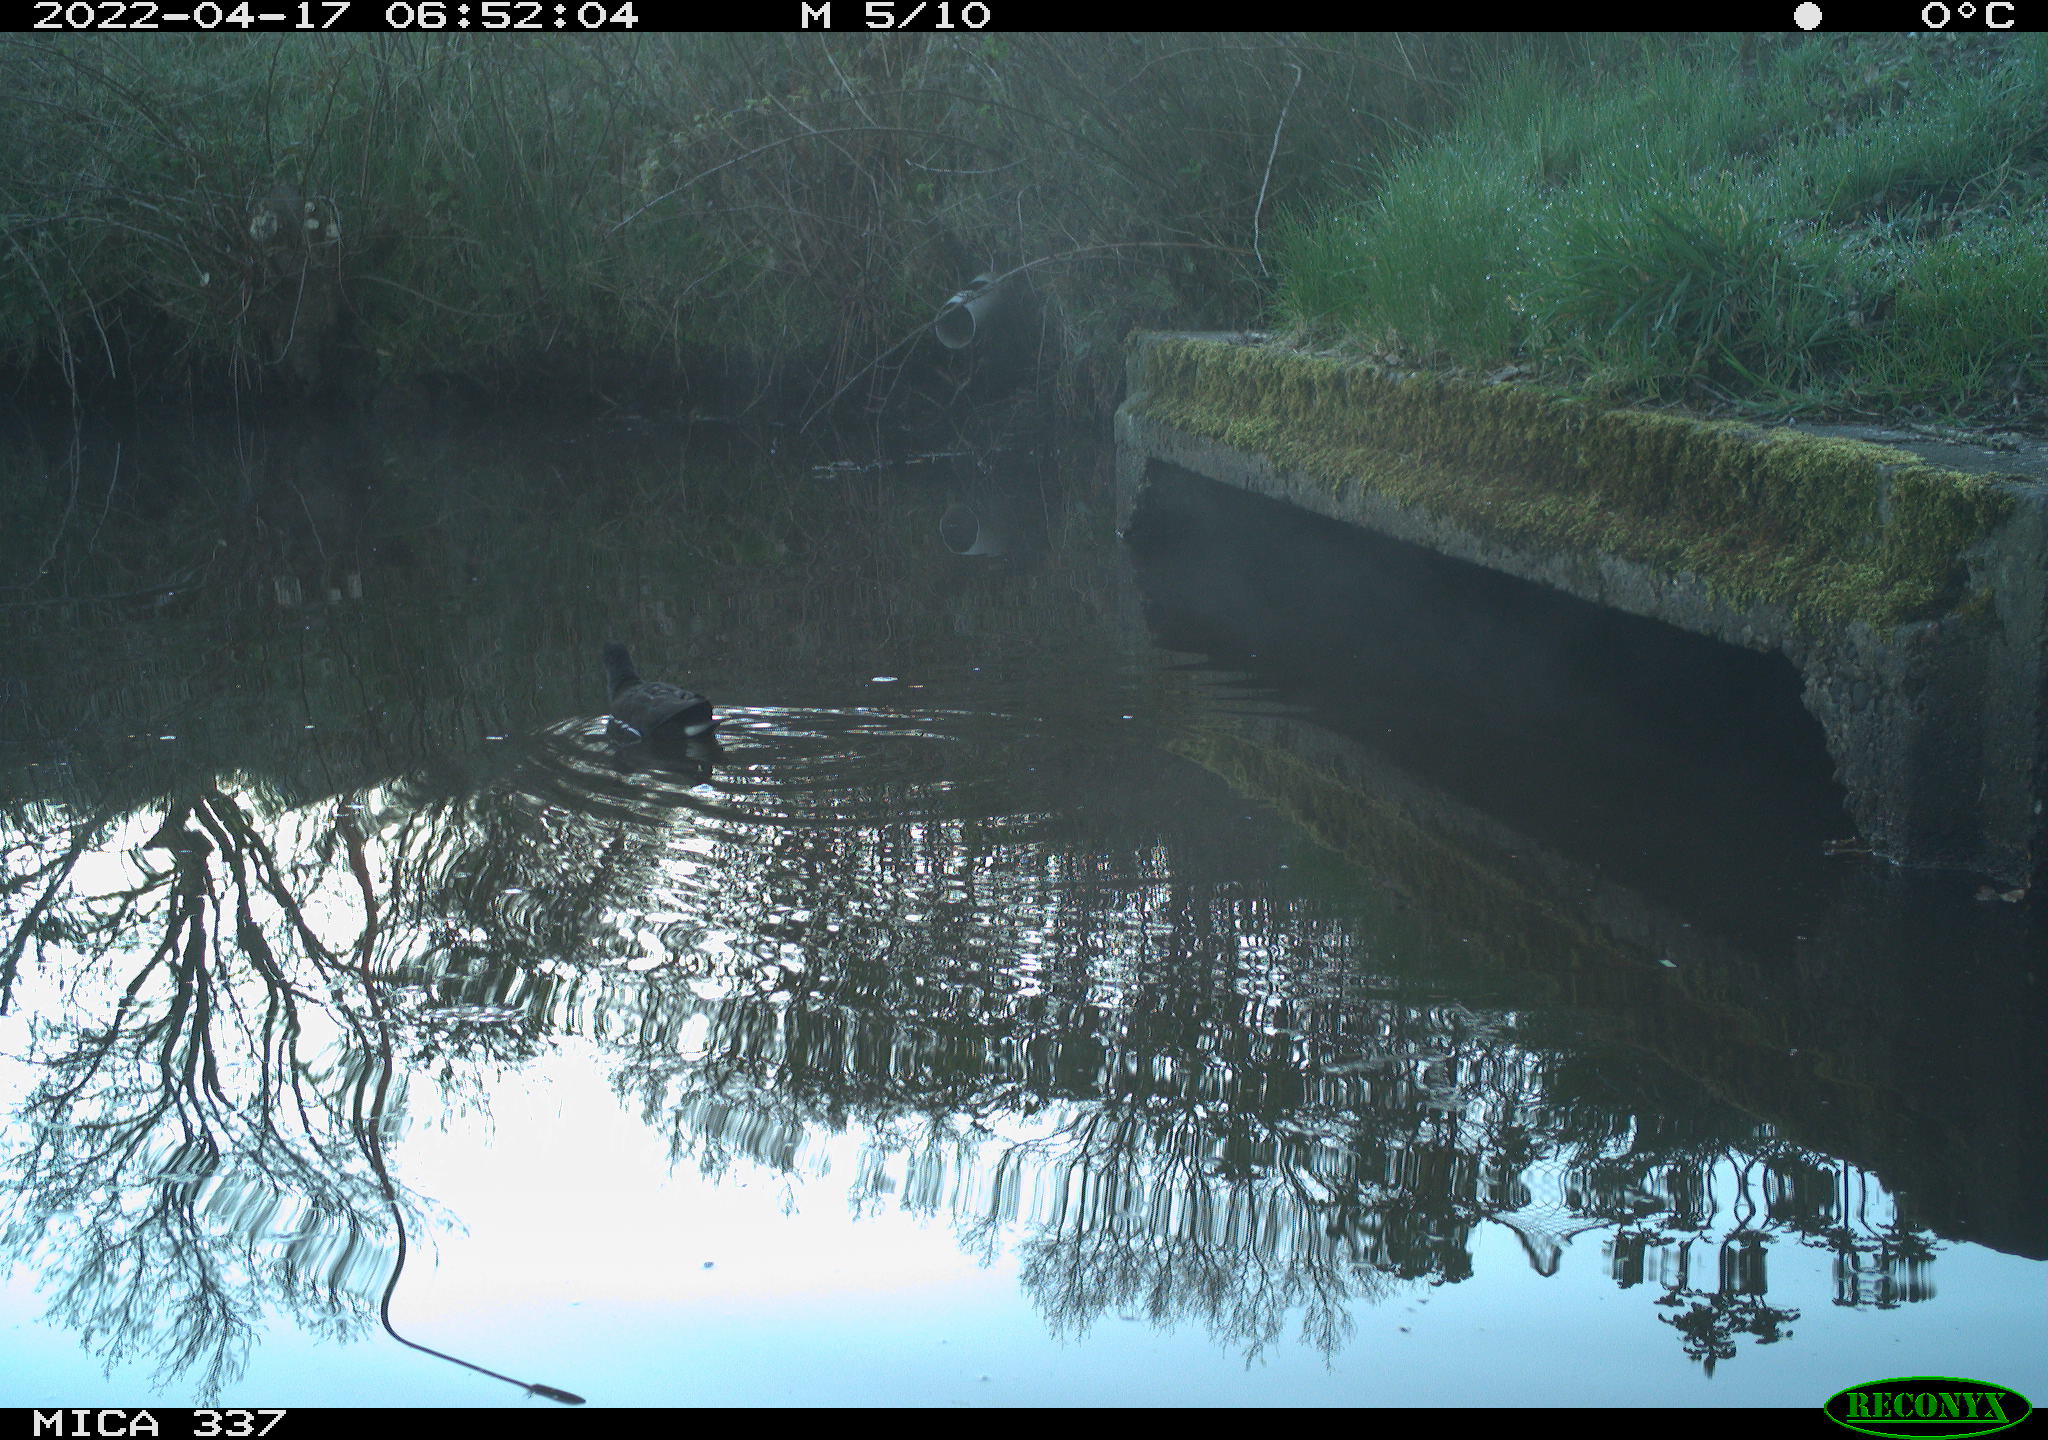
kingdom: Animalia
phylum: Chordata
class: Aves
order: Gruiformes
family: Rallidae
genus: Gallinula
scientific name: Gallinula chloropus
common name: Common moorhen
